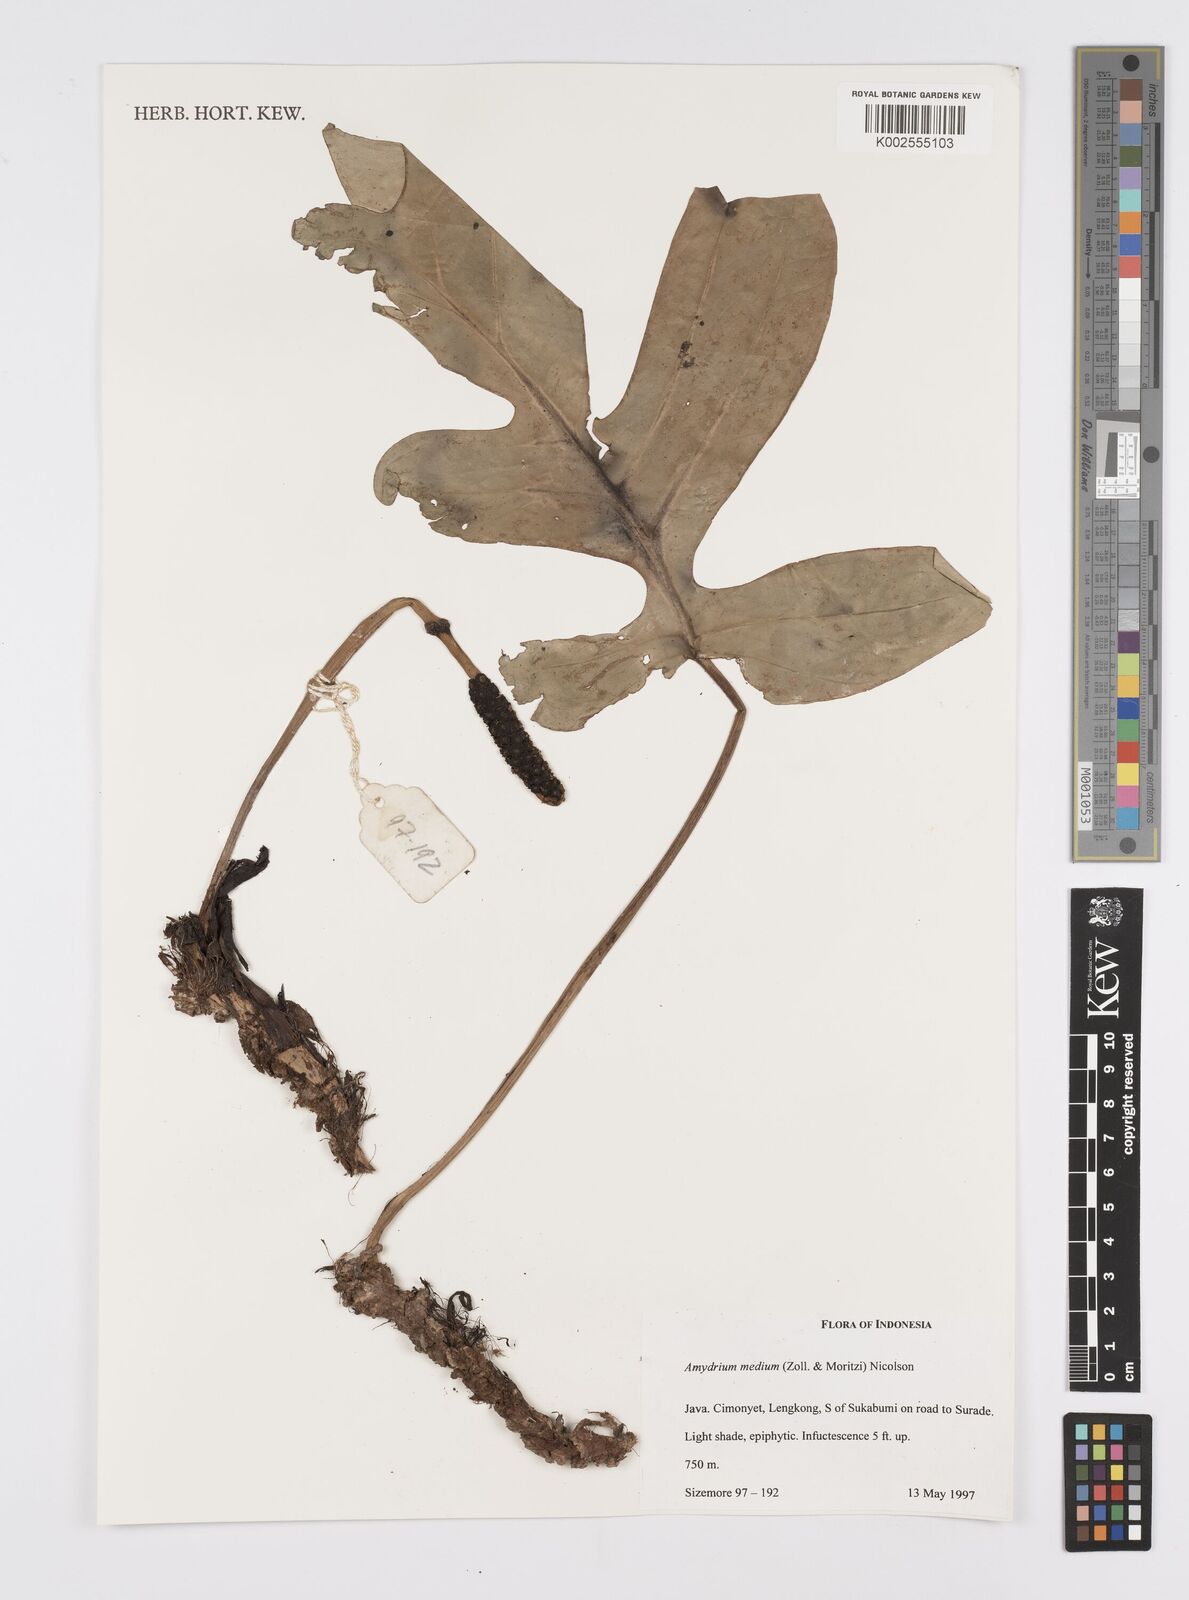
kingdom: Plantae
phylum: Tracheophyta
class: Liliopsida
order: Alismatales
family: Araceae
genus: Amydrium
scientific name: Amydrium medium
